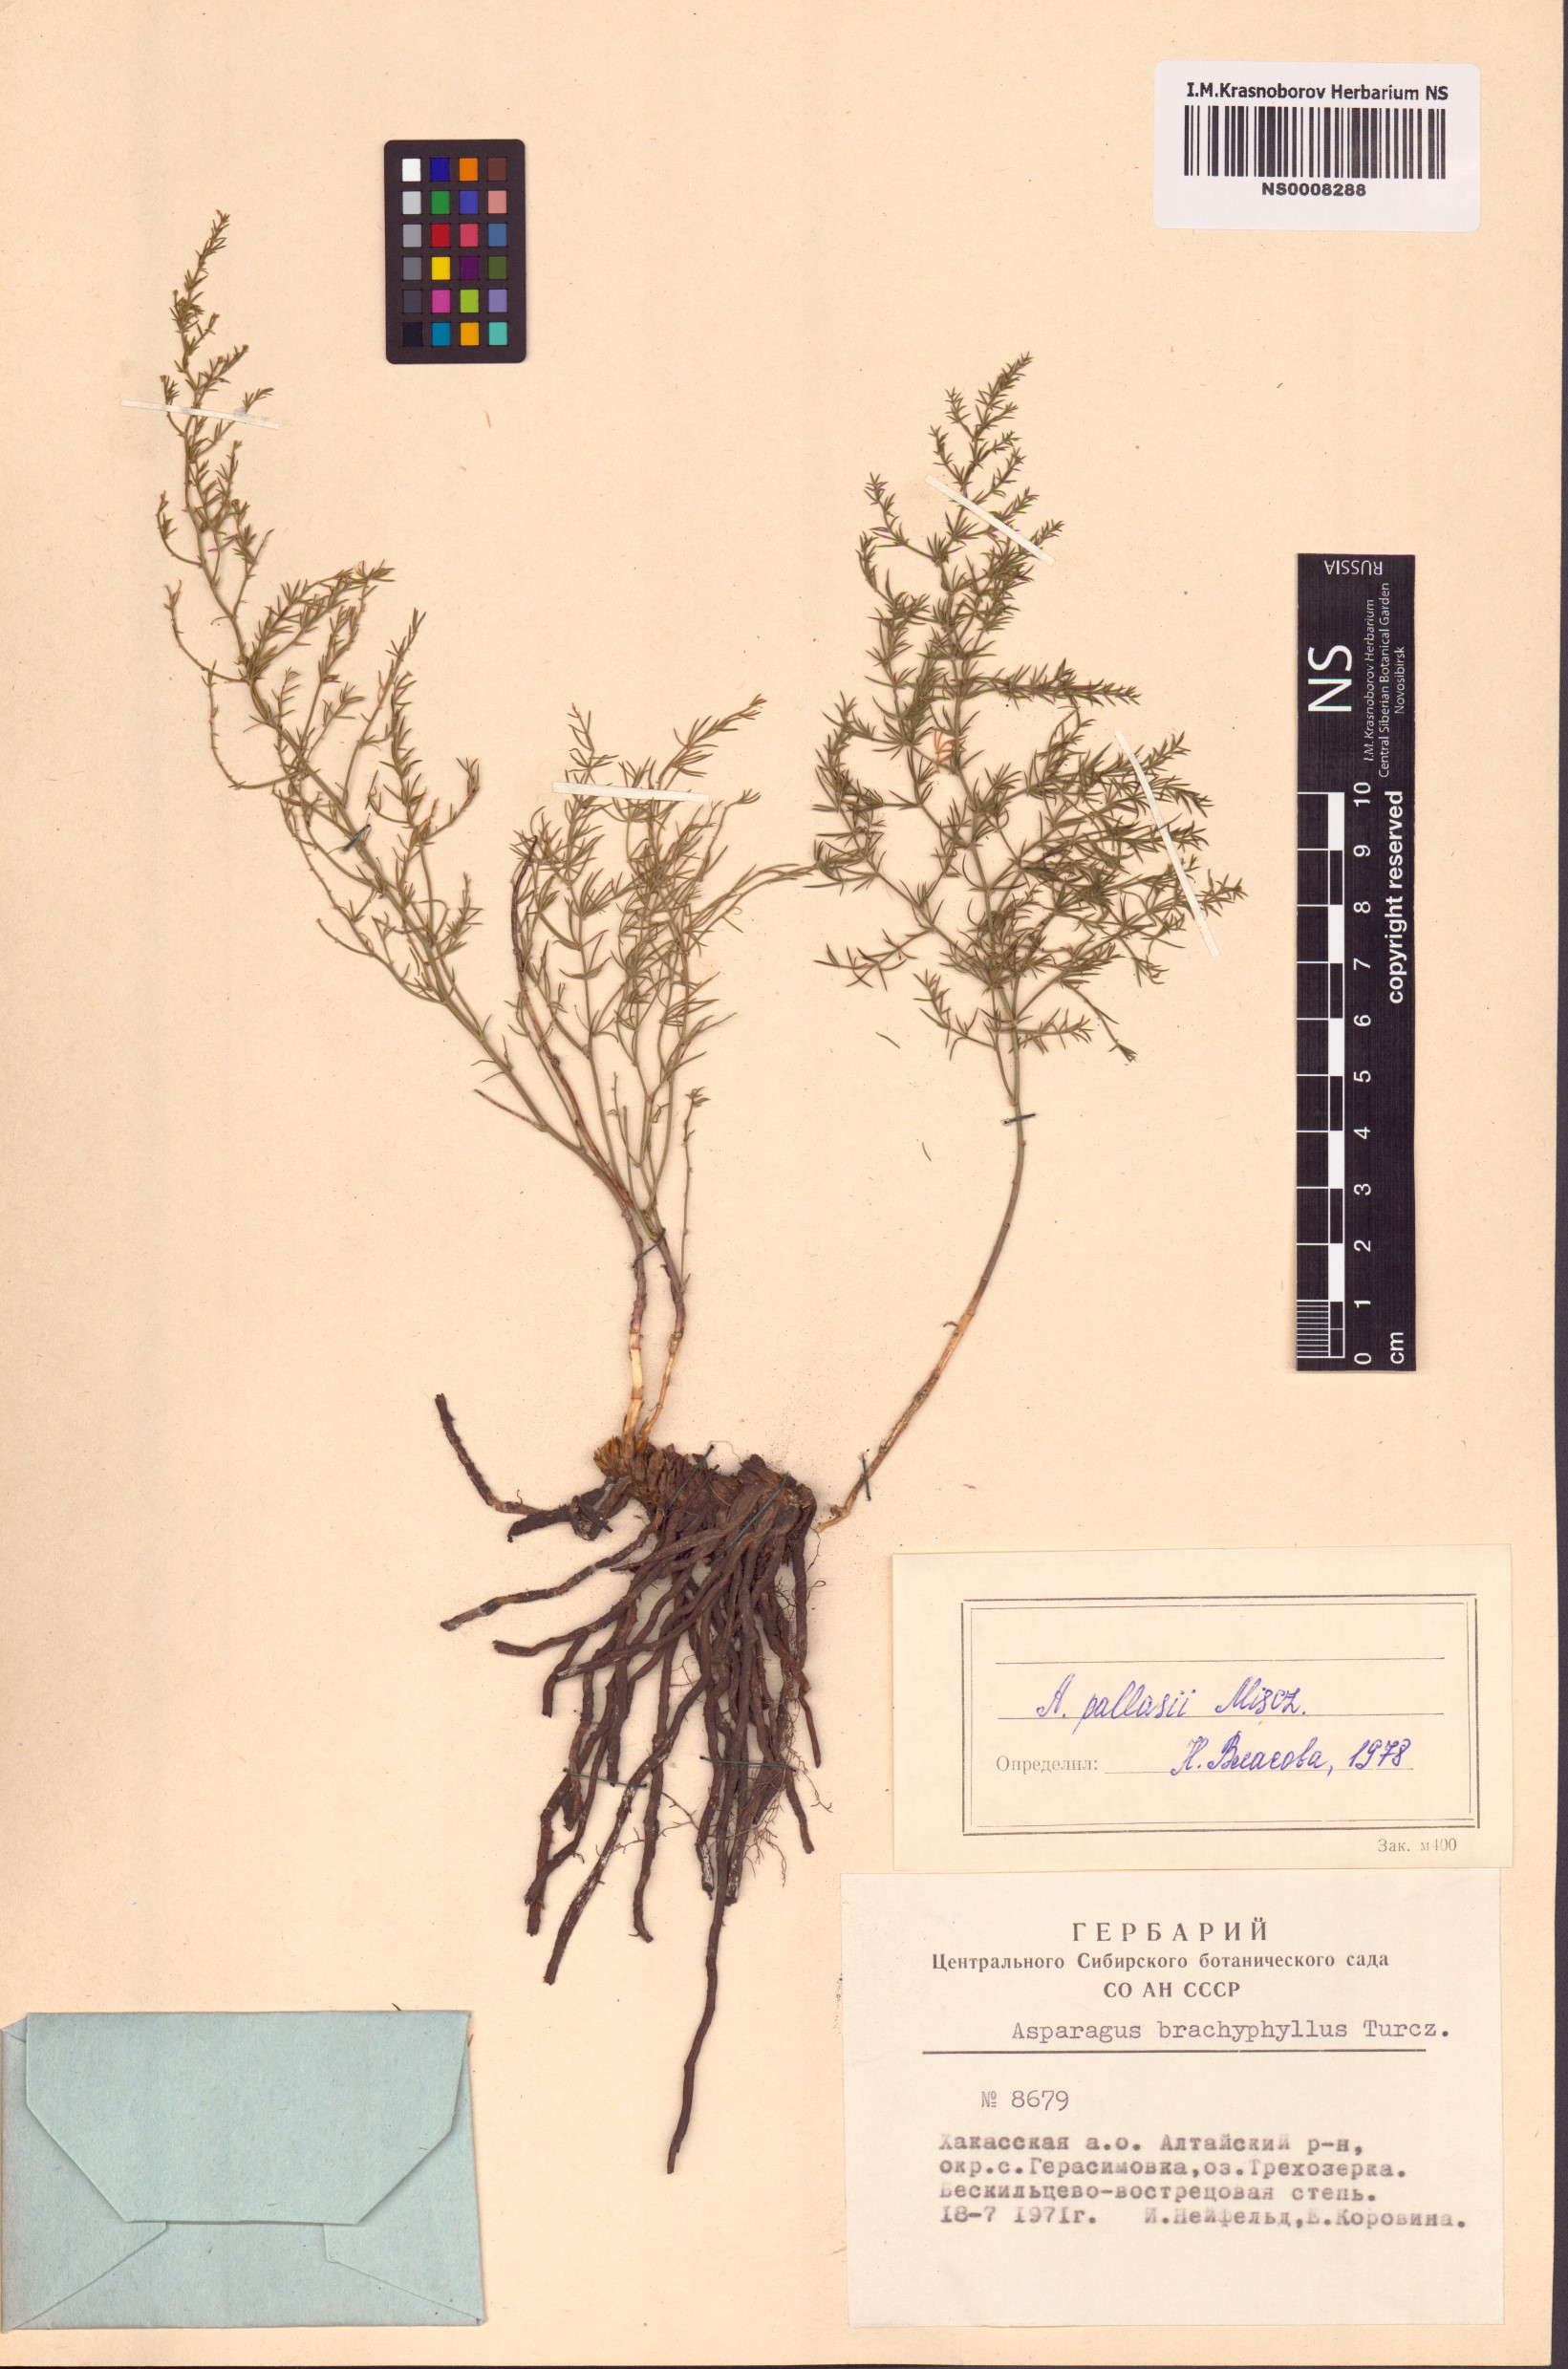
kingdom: Plantae
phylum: Tracheophyta
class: Liliopsida
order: Asparagales
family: Asparagaceae
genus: Asparagus
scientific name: Asparagus pallasii
